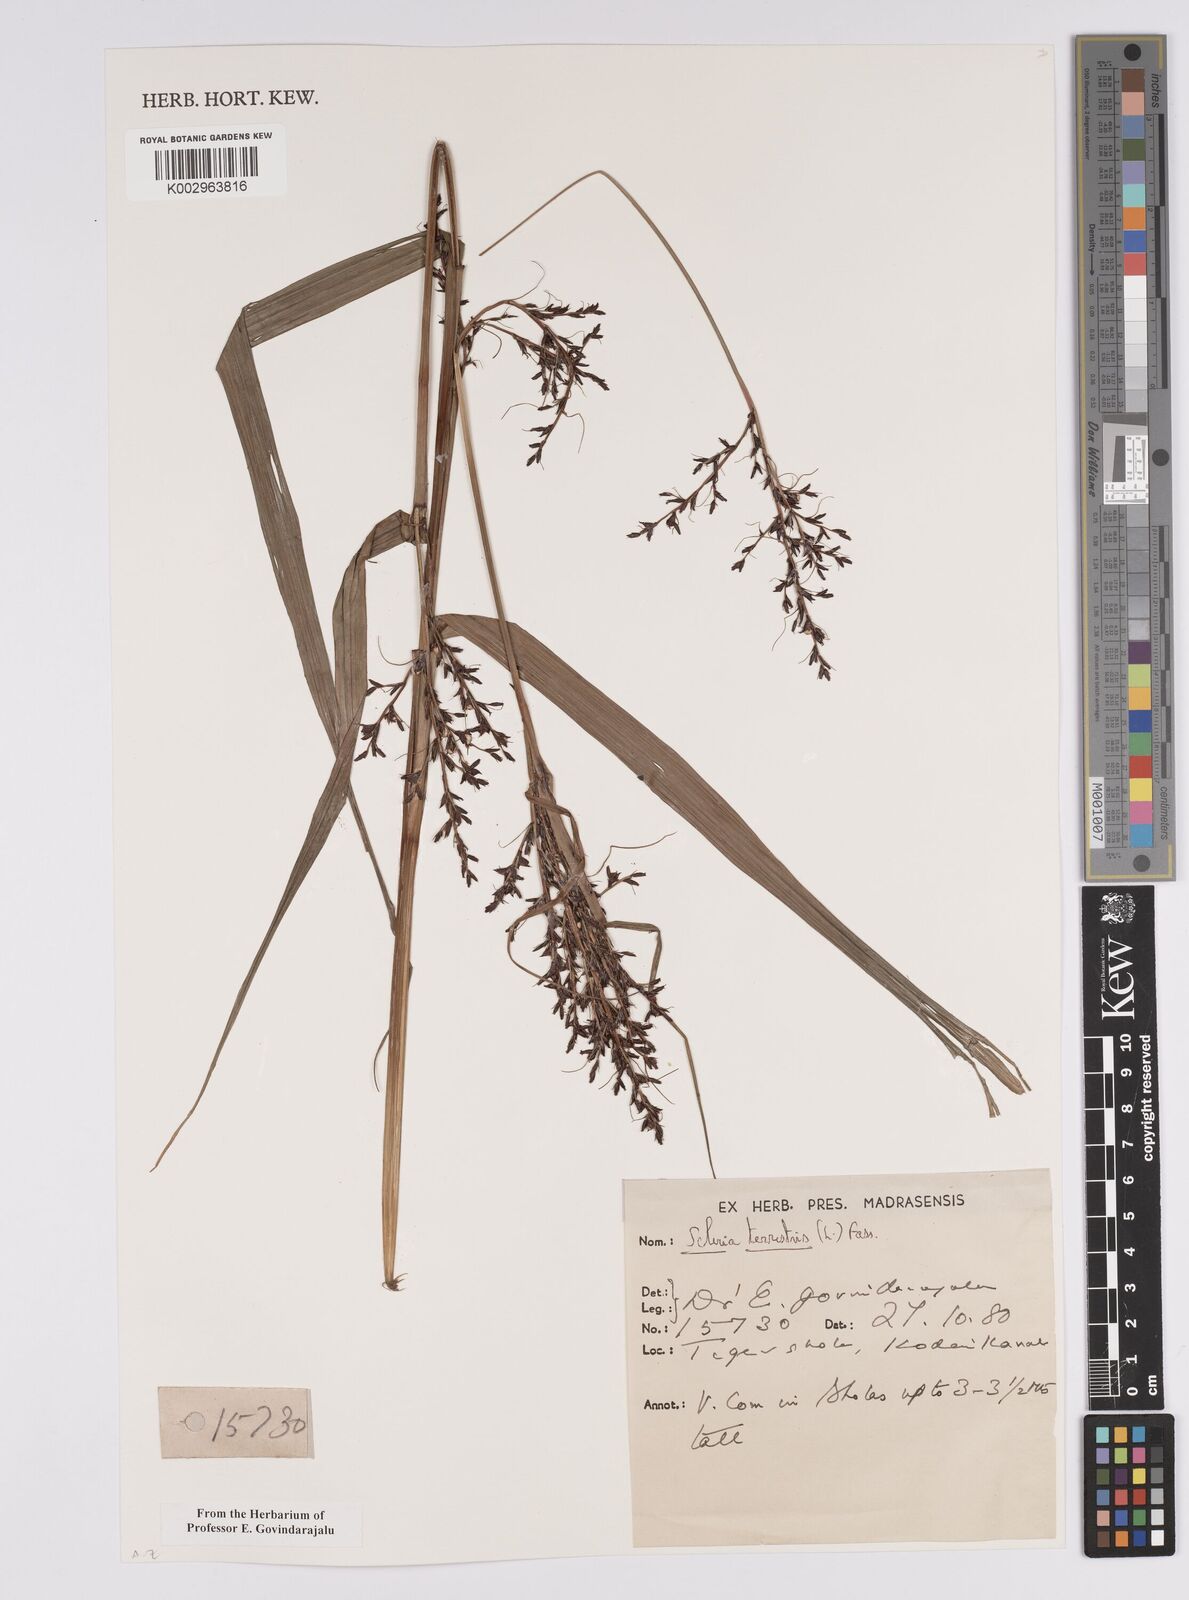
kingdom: Plantae
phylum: Tracheophyta
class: Liliopsida
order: Poales
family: Cyperaceae
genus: Scleria
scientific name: Scleria terrestris
